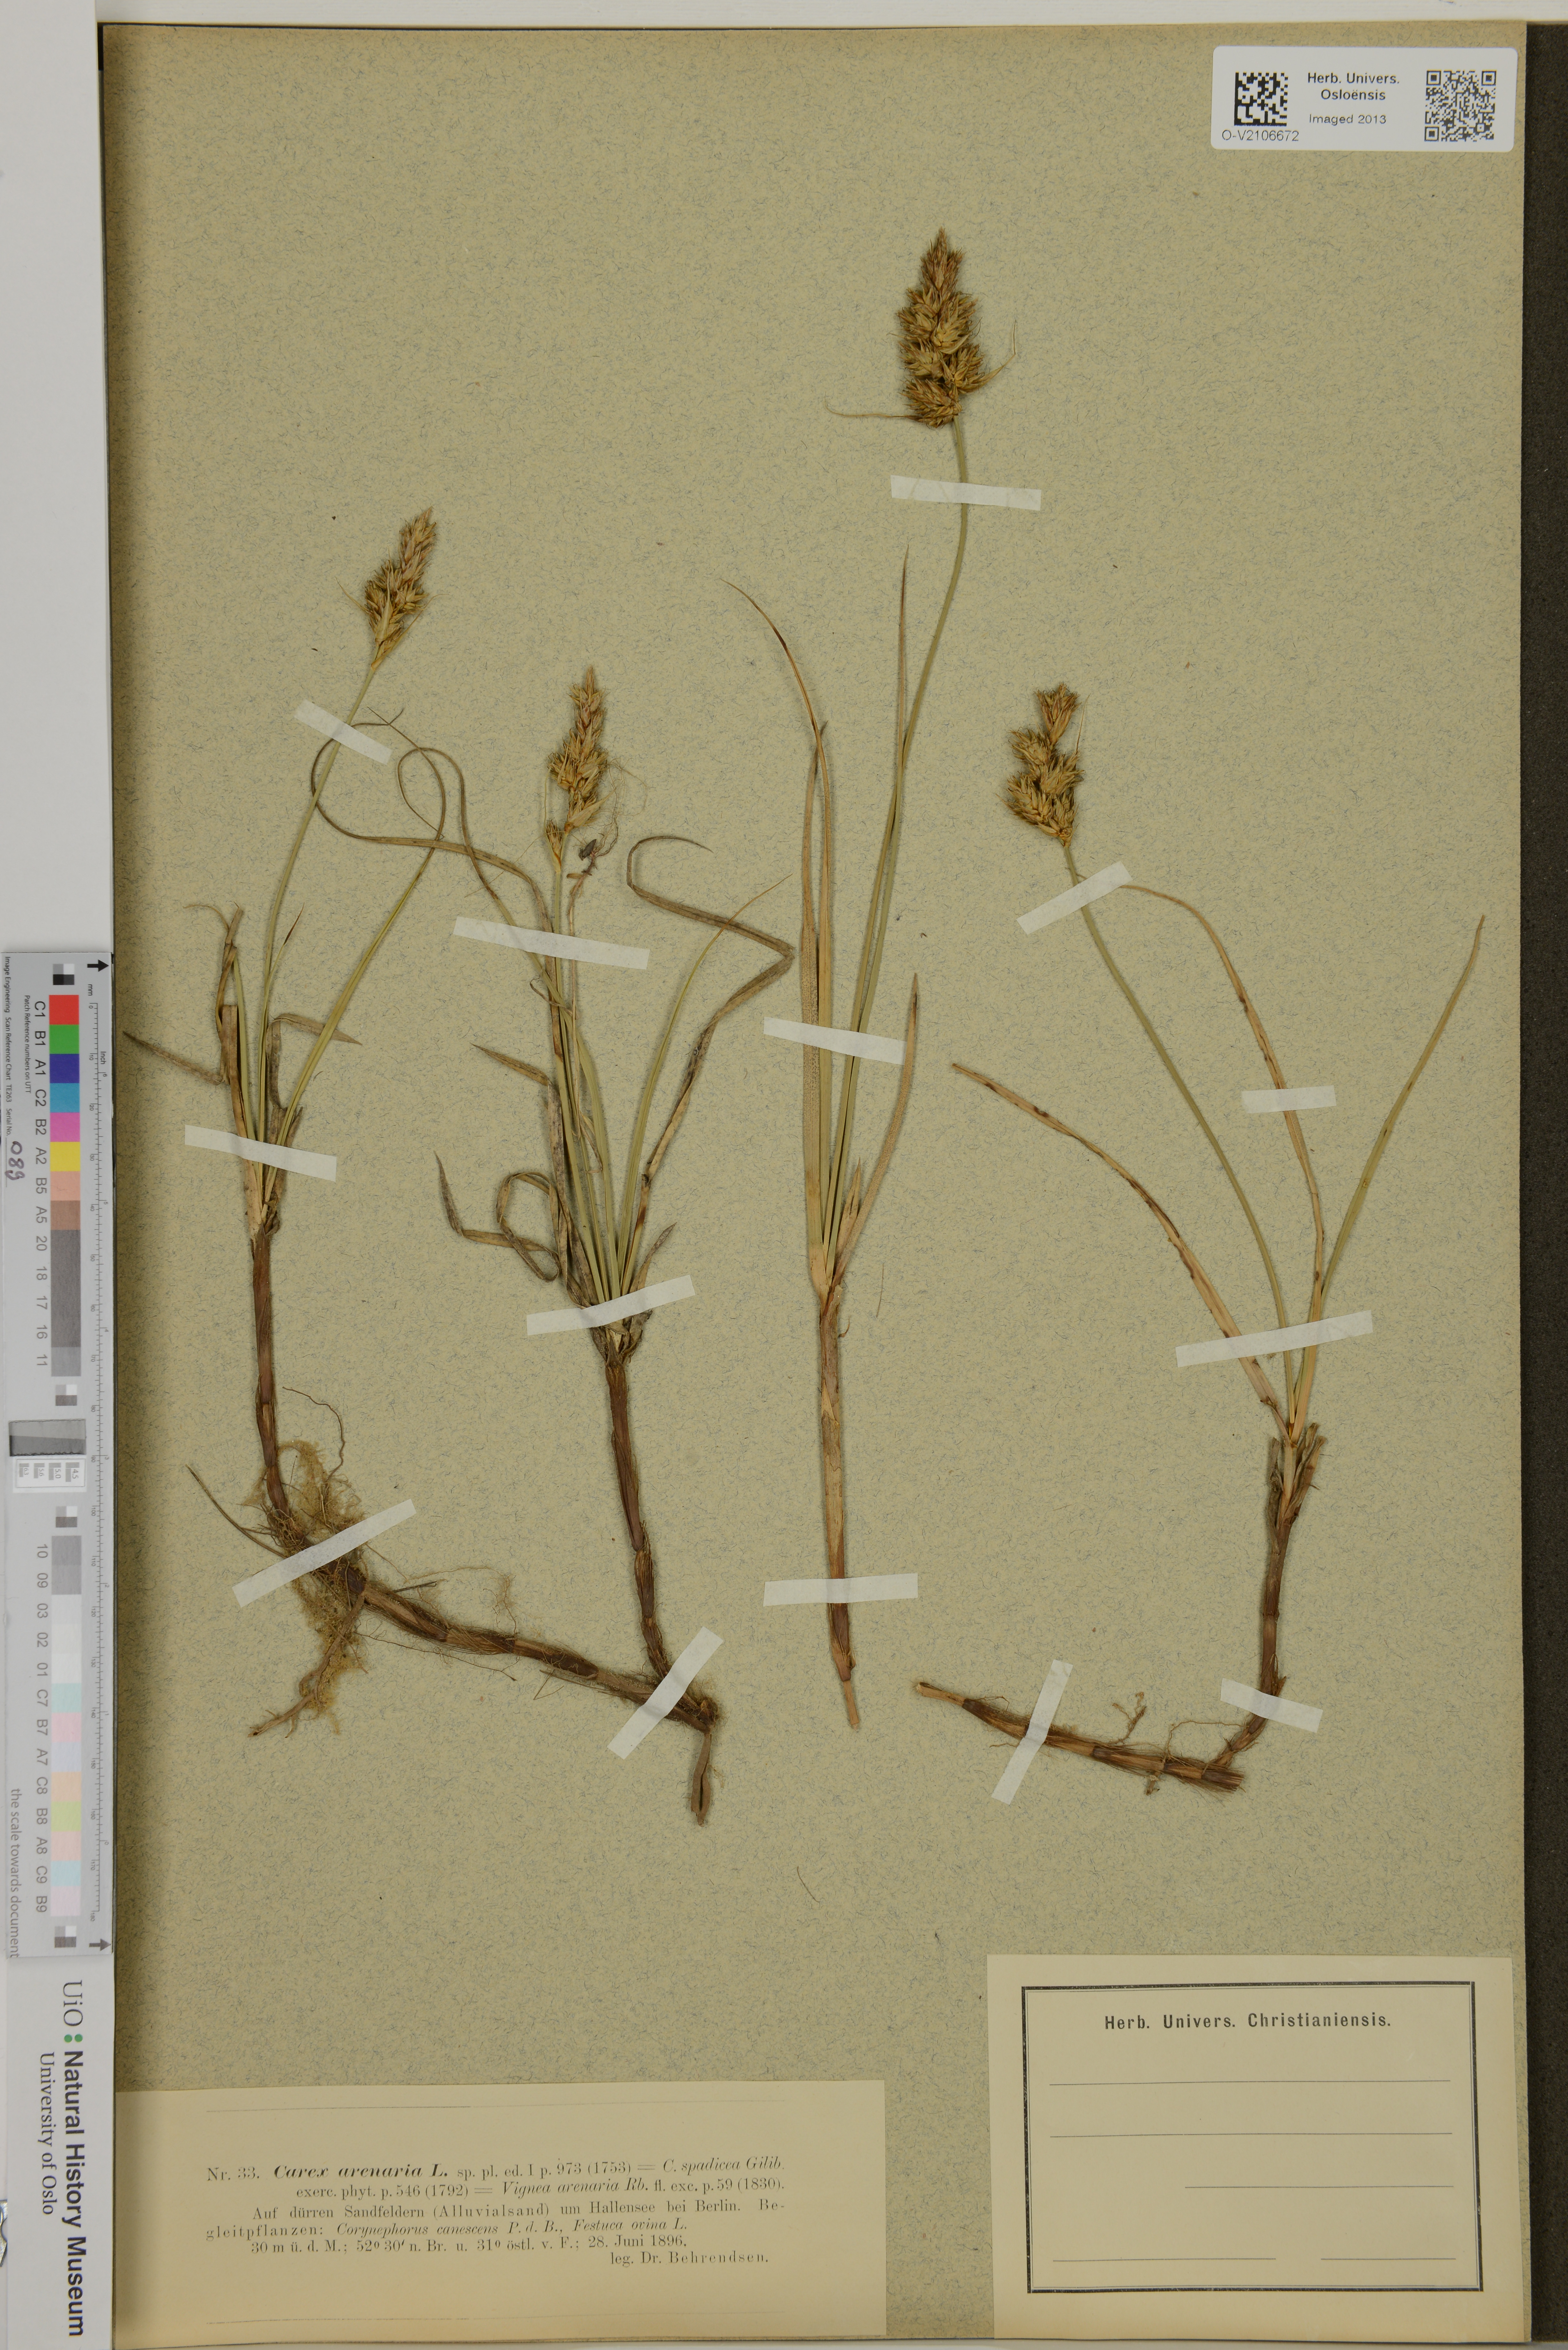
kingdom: Plantae
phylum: Tracheophyta
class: Liliopsida
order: Poales
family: Cyperaceae
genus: Carex
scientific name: Carex arenaria
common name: Sand sedge
